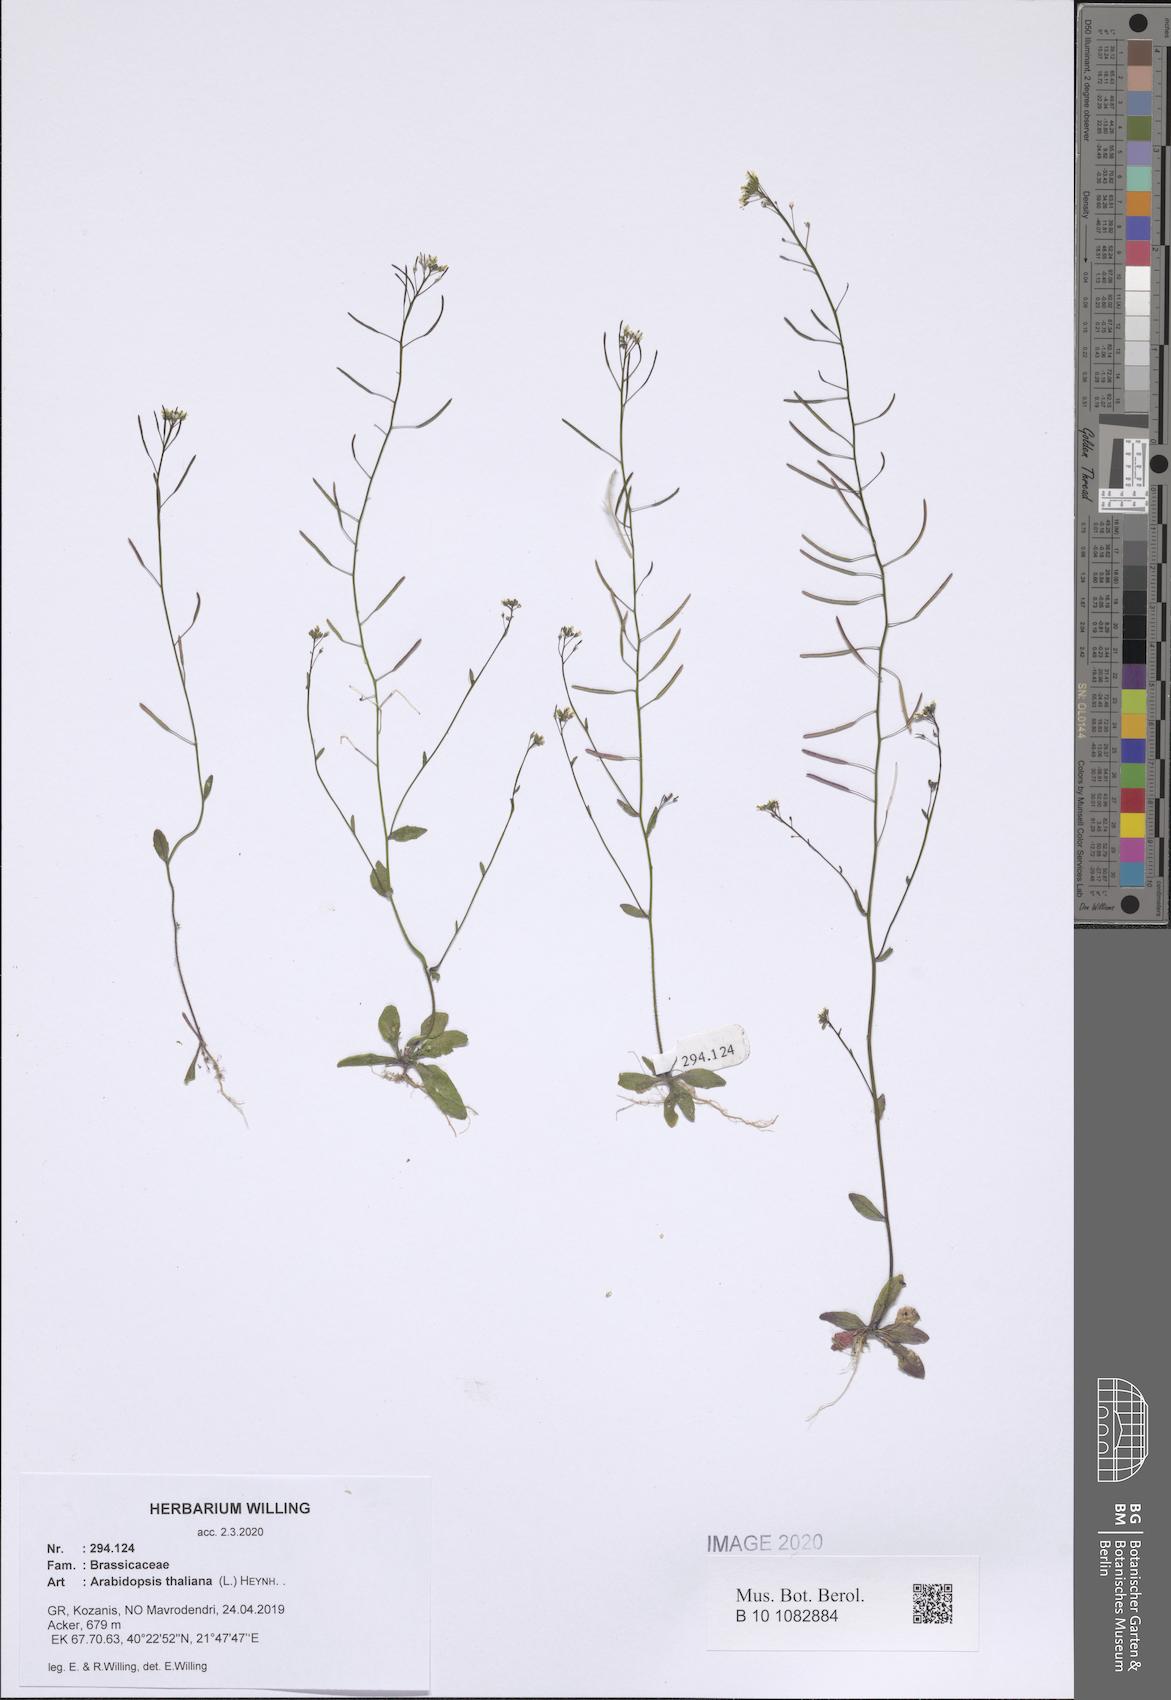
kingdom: Plantae
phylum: Tracheophyta
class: Magnoliopsida
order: Brassicales
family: Brassicaceae
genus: Arabidopsis
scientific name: Arabidopsis thaliana
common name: Thale cress
